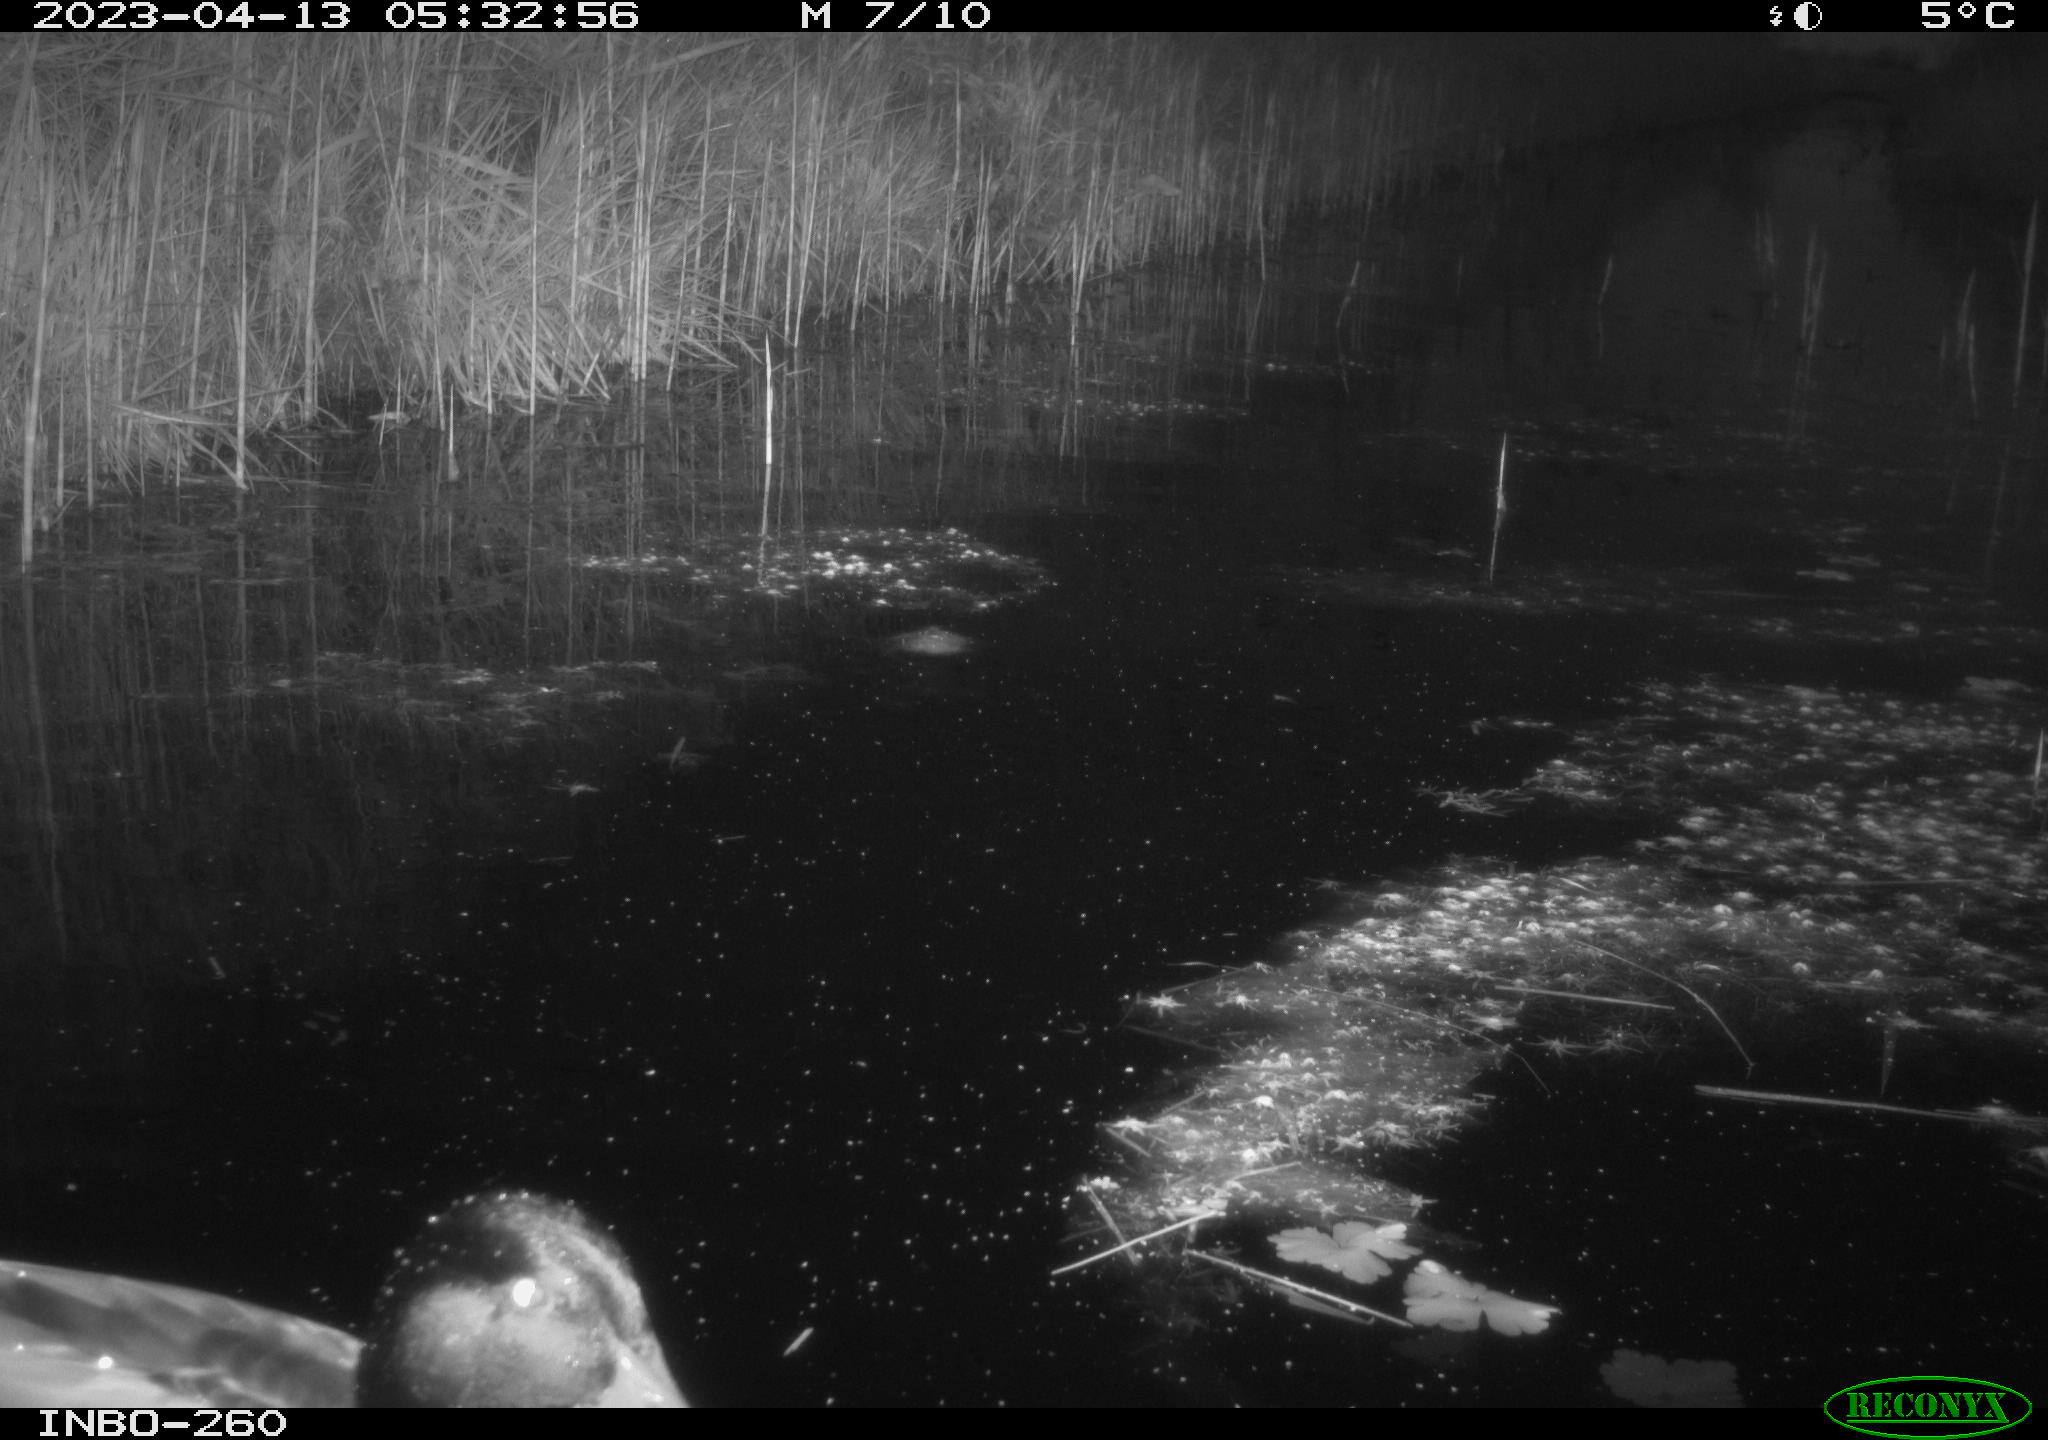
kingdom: Animalia
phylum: Chordata
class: Aves
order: Anseriformes
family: Anatidae
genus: Anas
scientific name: Anas
